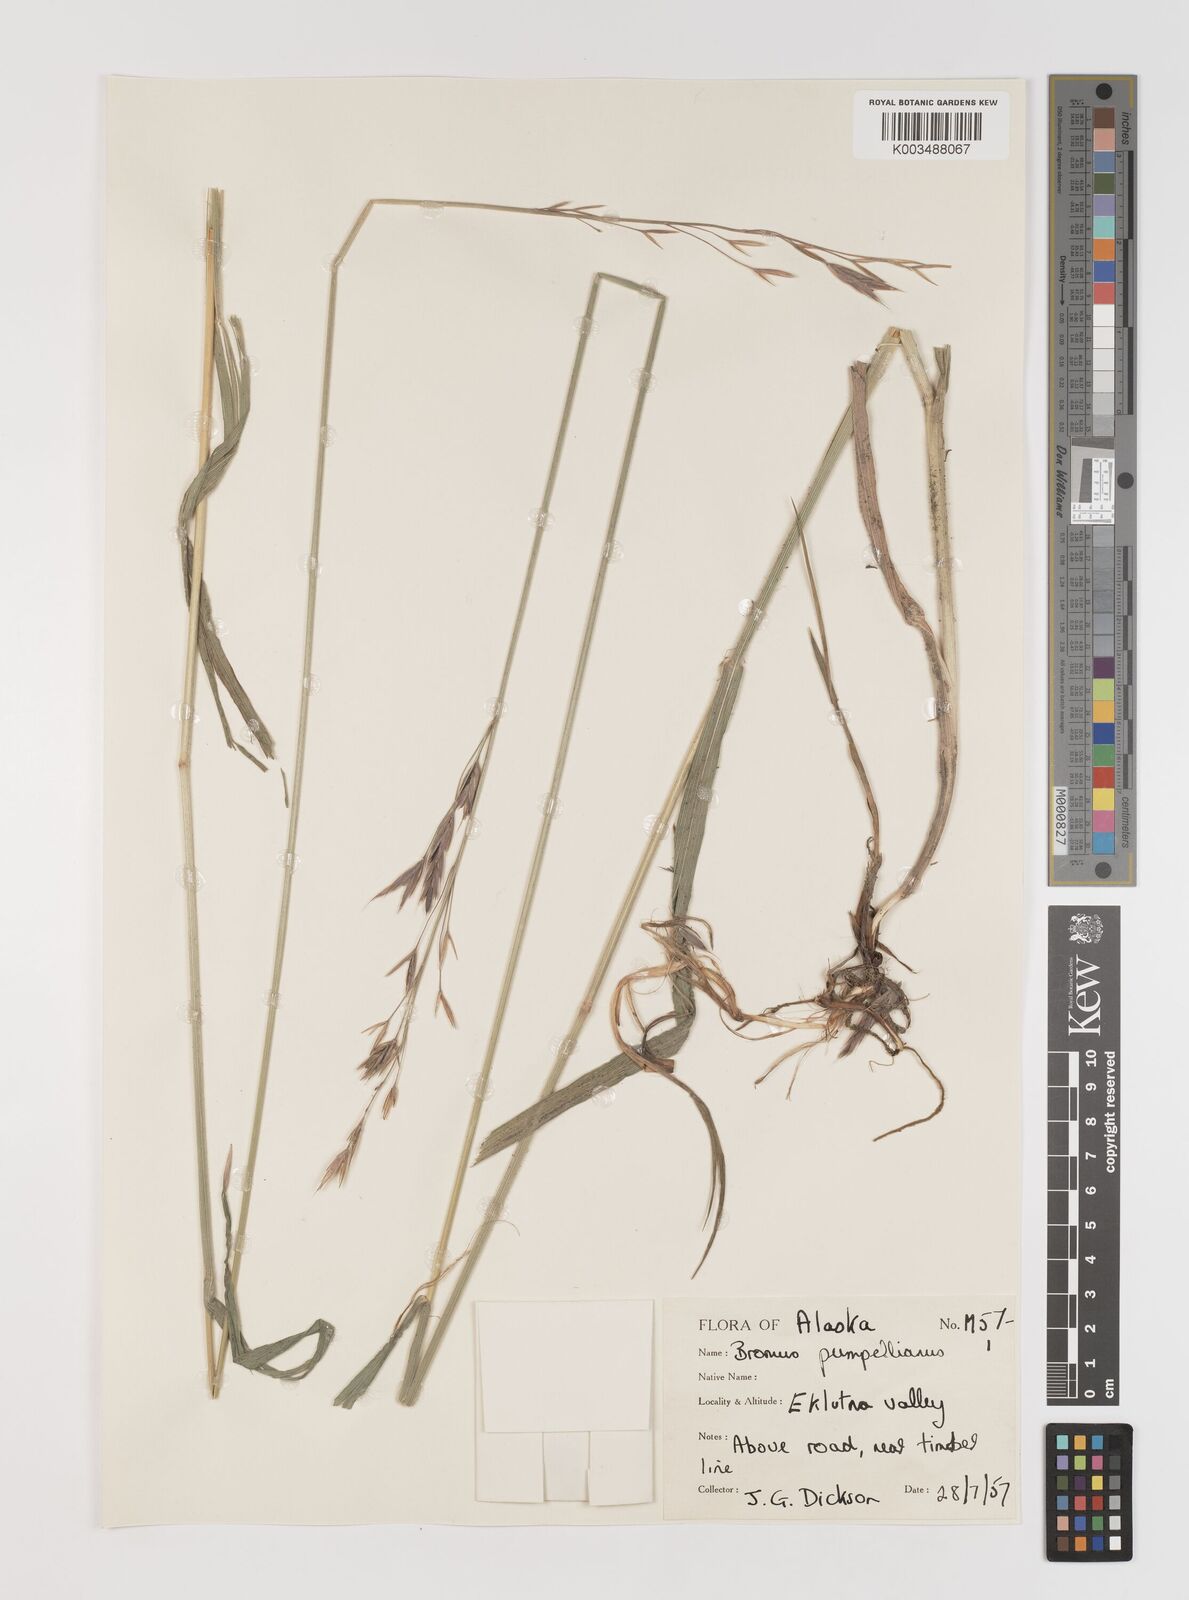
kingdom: Plantae
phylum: Tracheophyta
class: Liliopsida
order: Poales
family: Poaceae
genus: Bromus
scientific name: Bromus pumpellianus
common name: Pumpelly's brome
